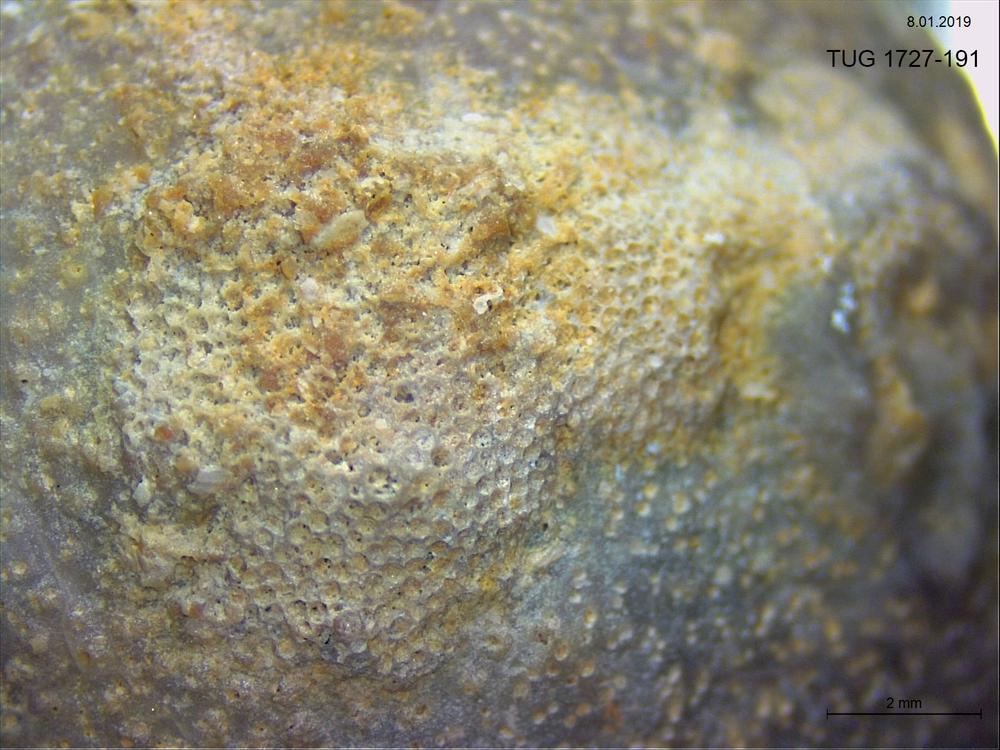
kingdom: Animalia
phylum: Bryozoa
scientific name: Bryozoa
